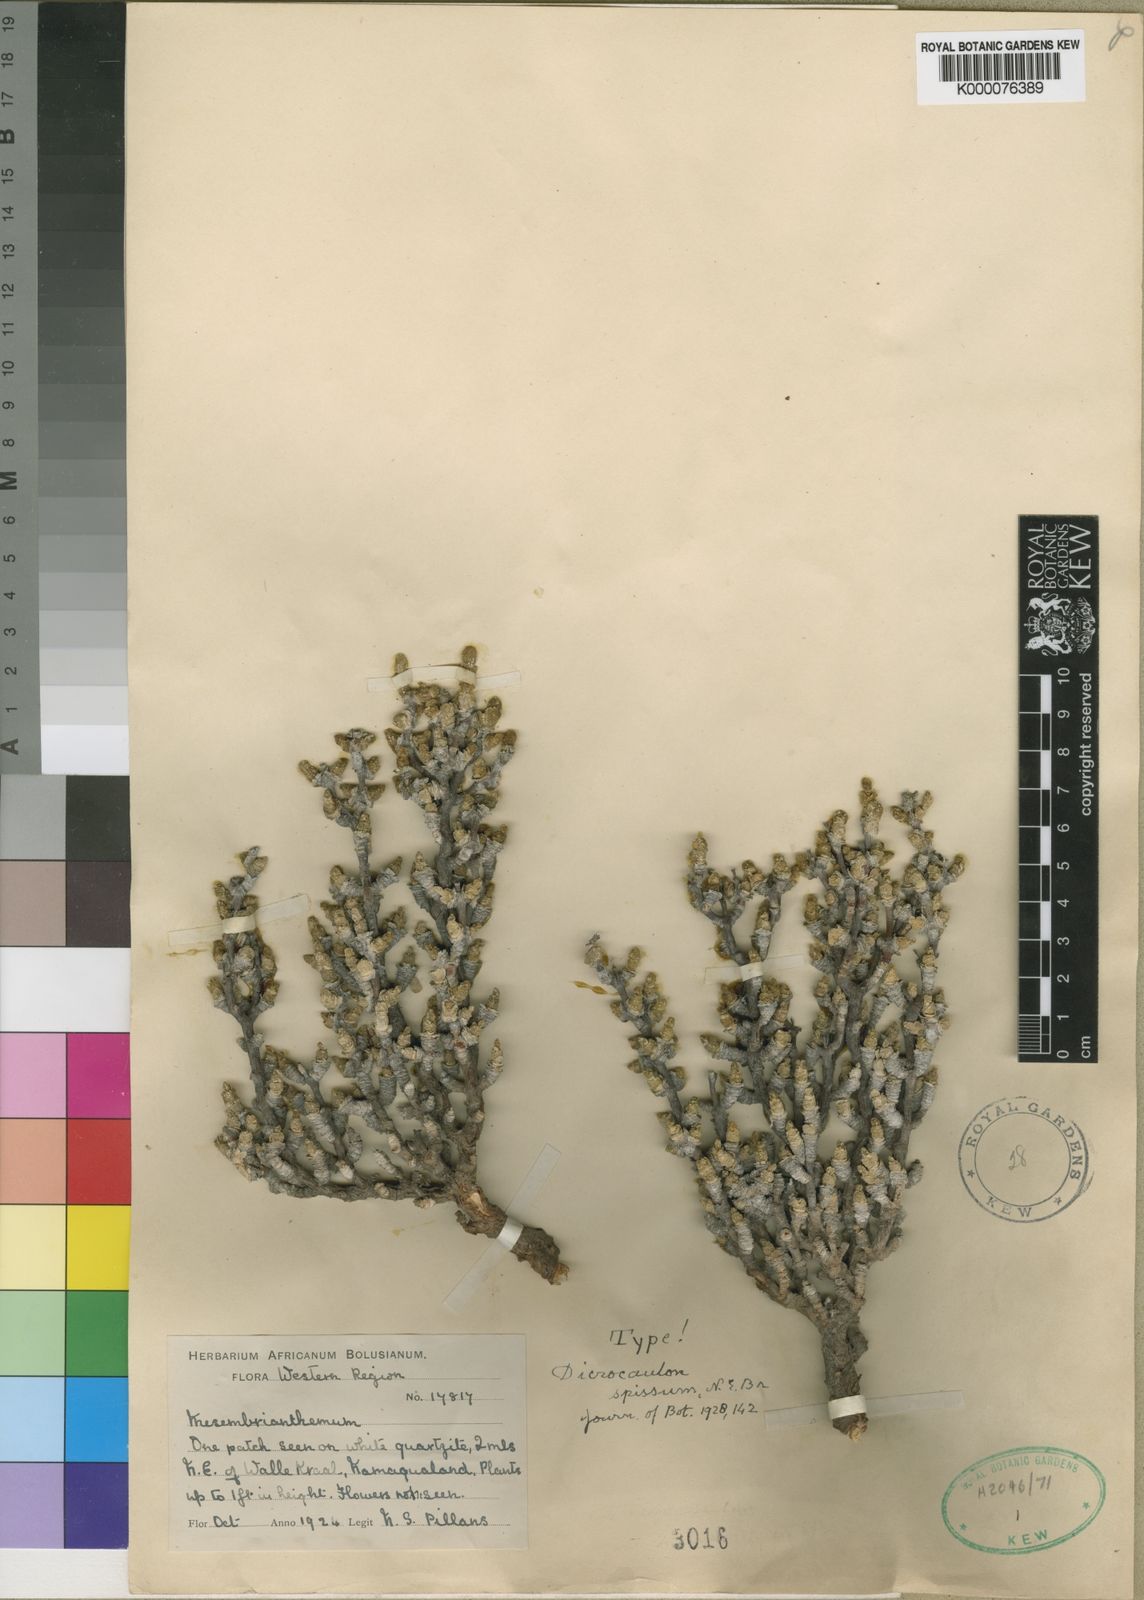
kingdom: Plantae
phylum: Tracheophyta
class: Magnoliopsida
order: Caryophyllales
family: Aizoaceae
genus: Dicrocaulon
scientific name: Dicrocaulon spissum
